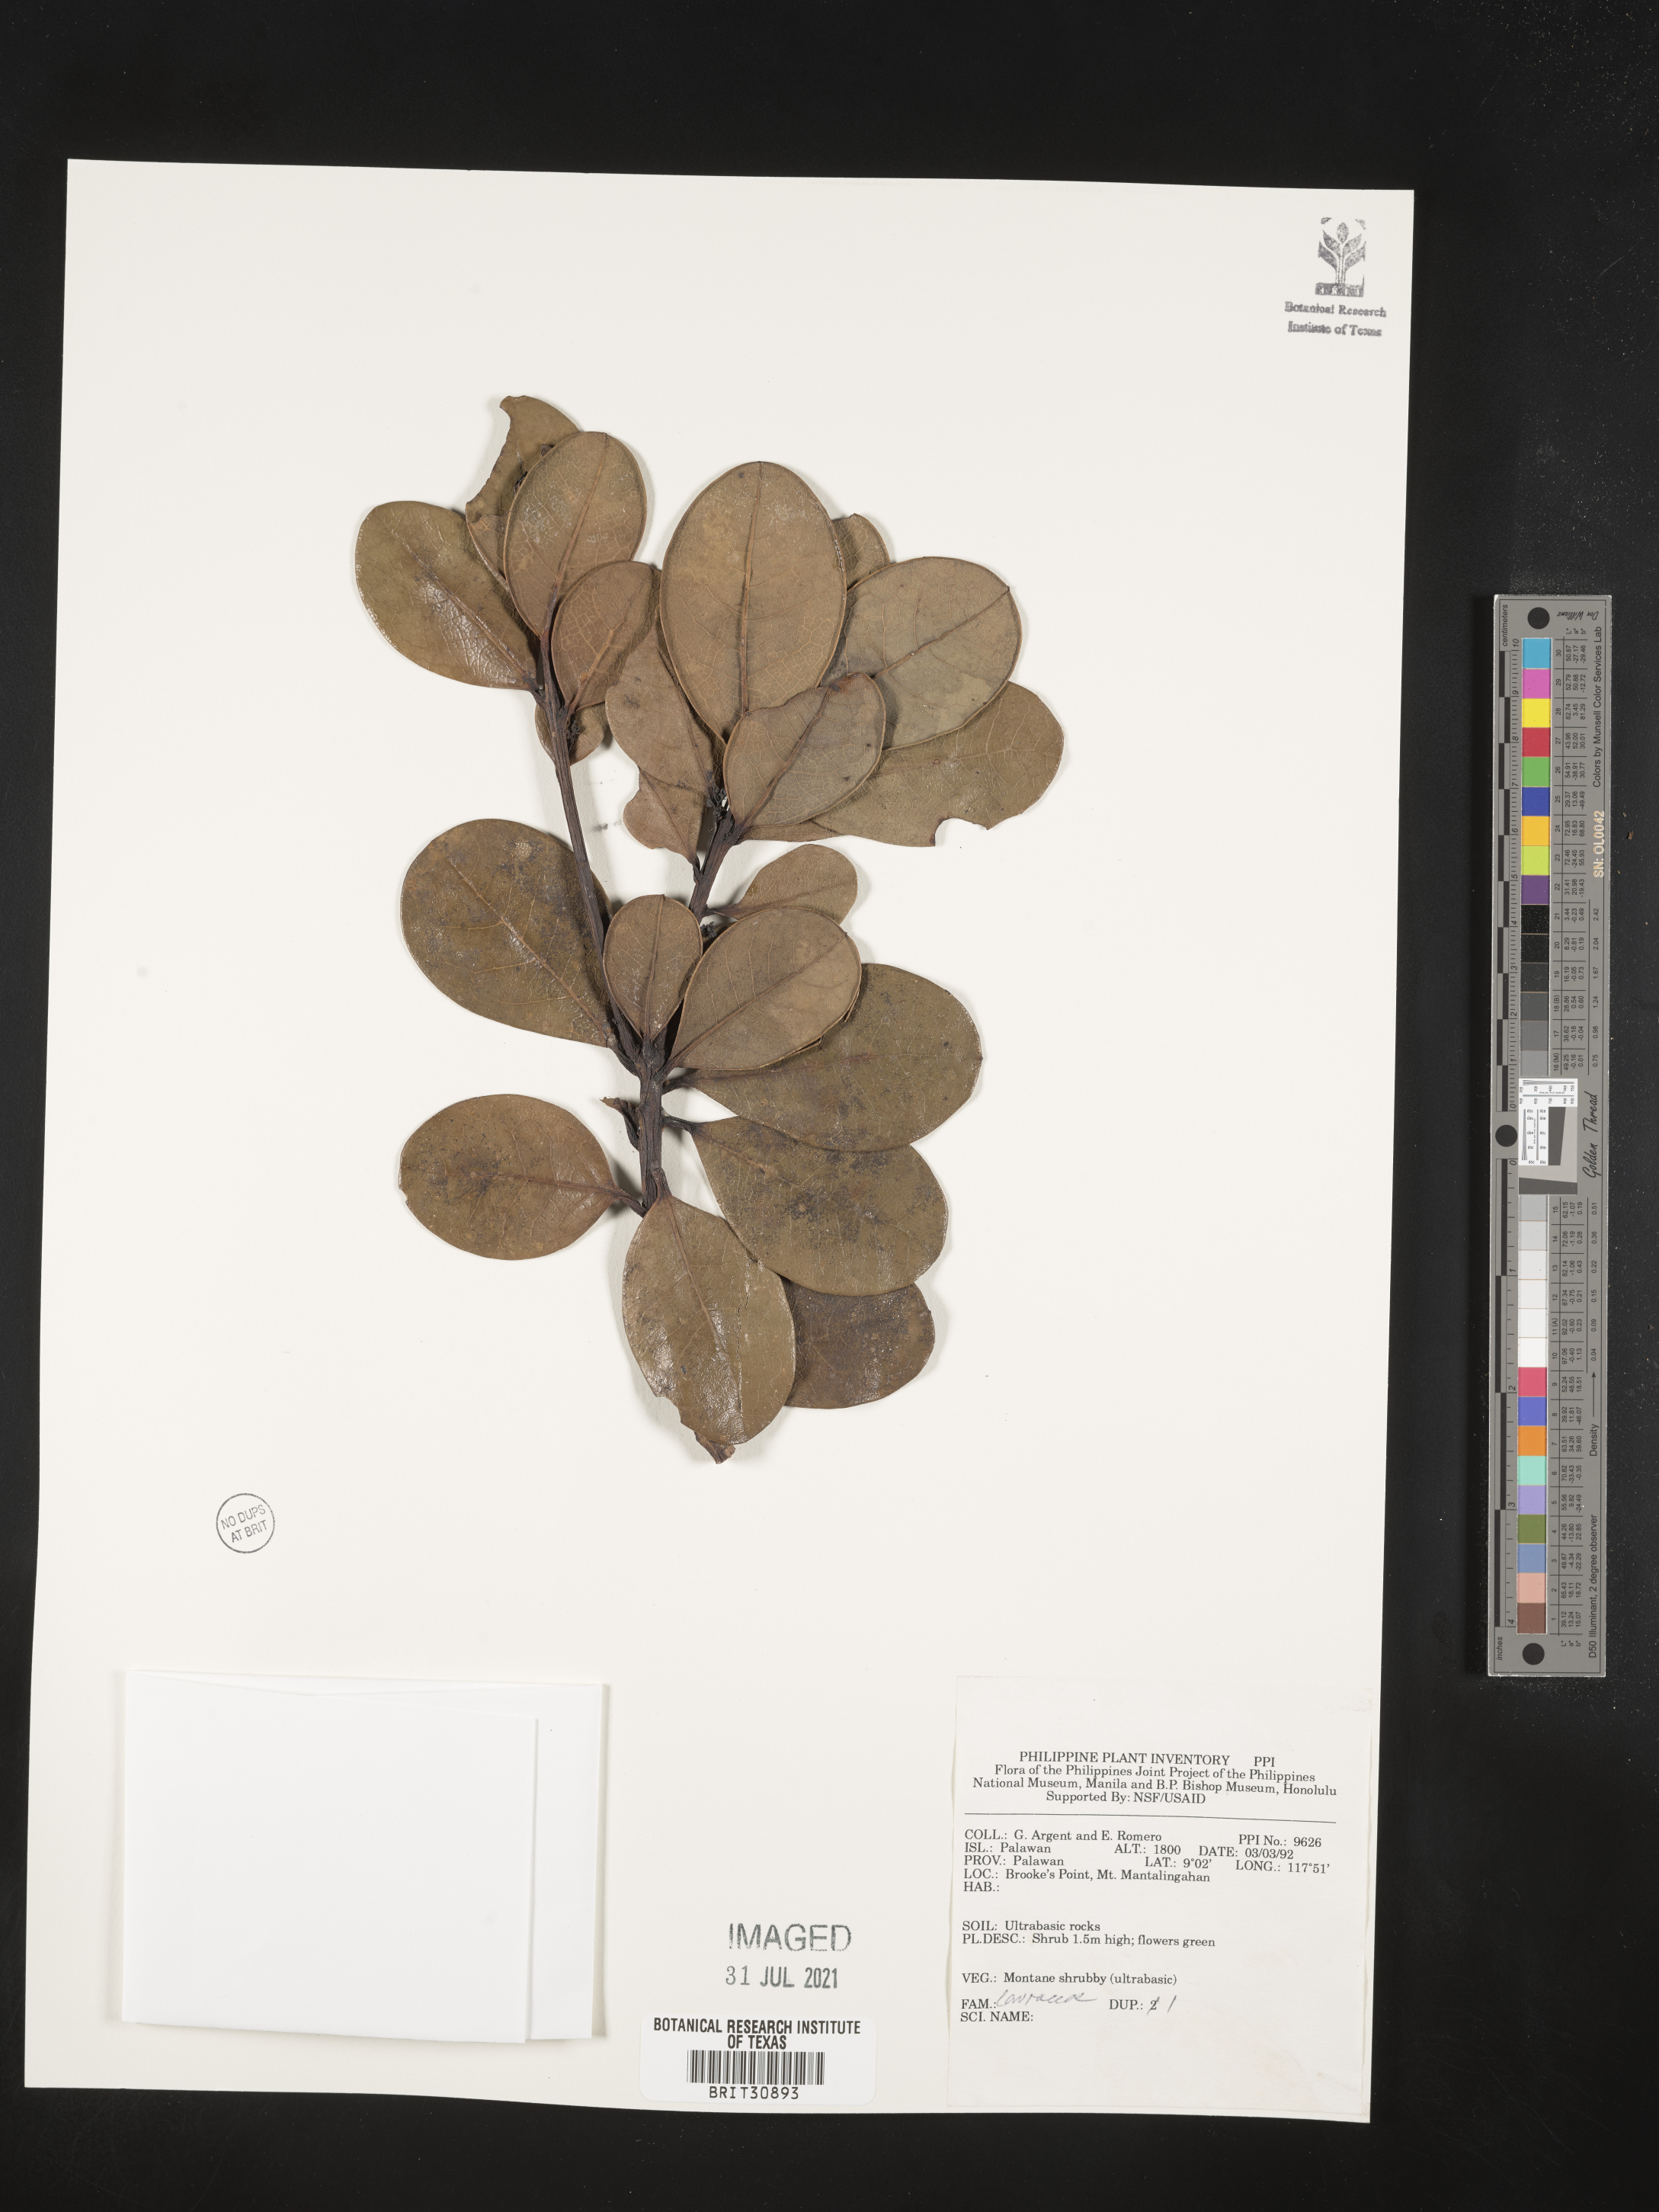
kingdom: Plantae
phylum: Tracheophyta
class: Magnoliopsida
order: Laurales
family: Lauraceae
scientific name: Lauraceae
